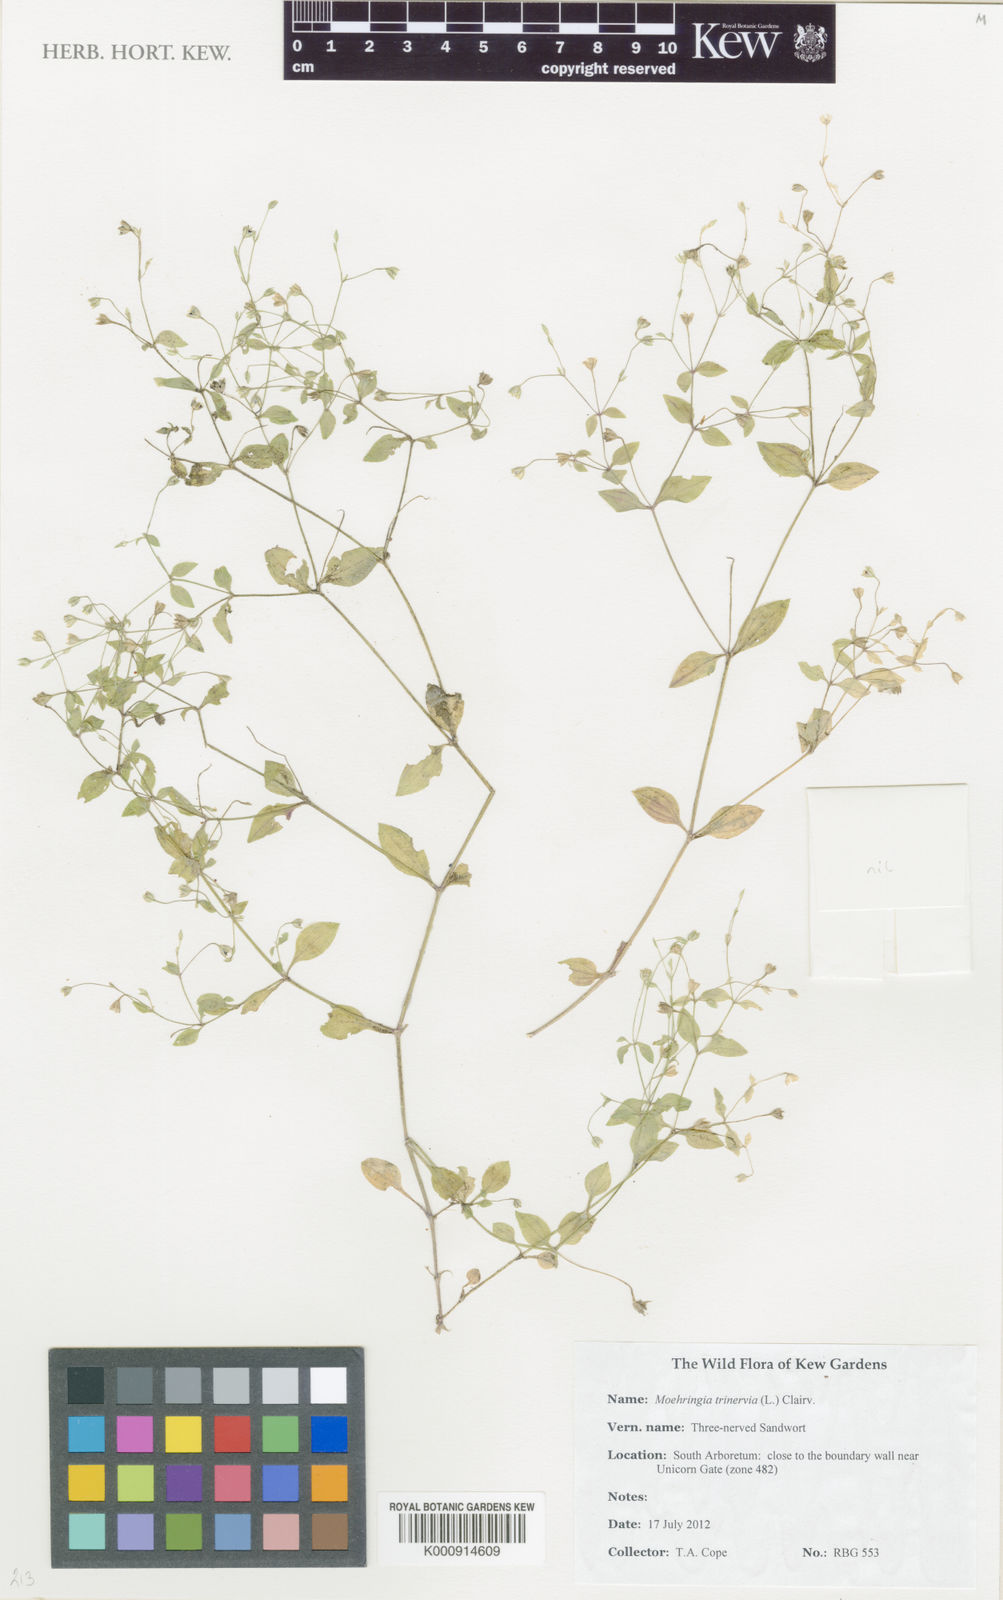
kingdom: Plantae
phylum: Tracheophyta
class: Magnoliopsida
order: Caryophyllales
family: Caryophyllaceae
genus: Moehringia
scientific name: Moehringia trinervia
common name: Three-nerved sandwort
